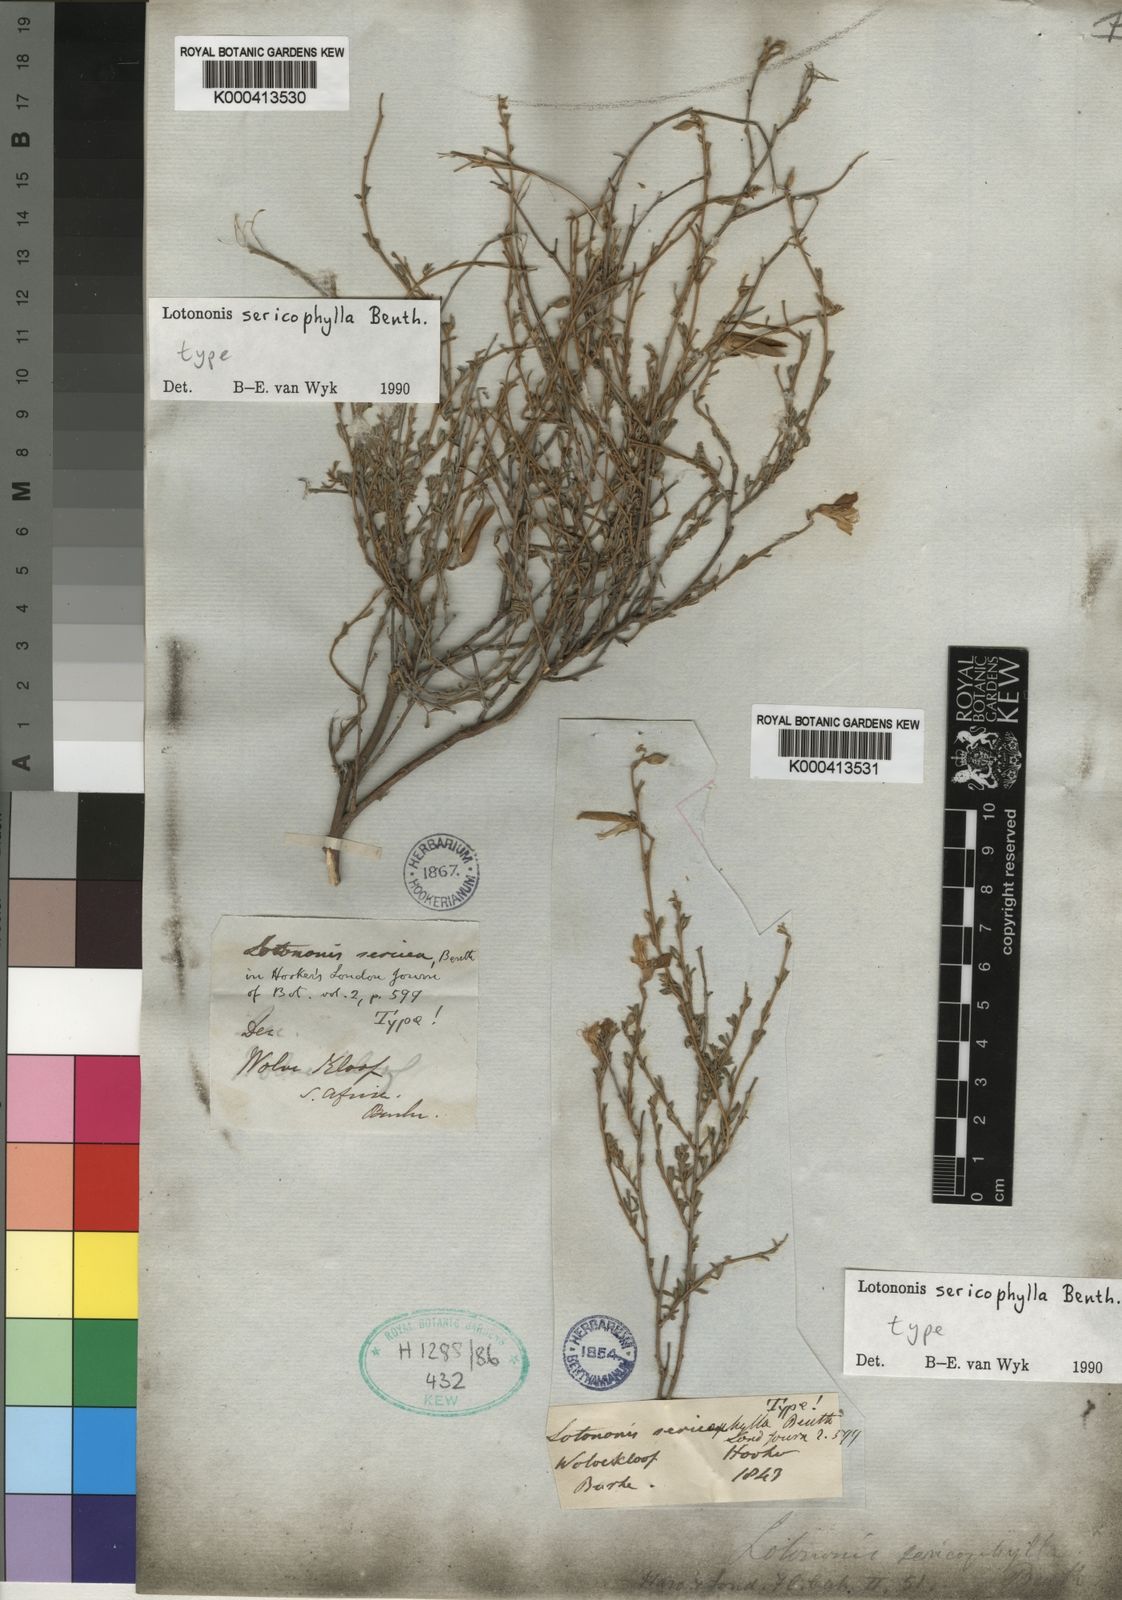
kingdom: Plantae
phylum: Tracheophyta
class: Magnoliopsida
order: Fabales
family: Fabaceae
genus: Lotononis
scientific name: Lotononis sericophylla
